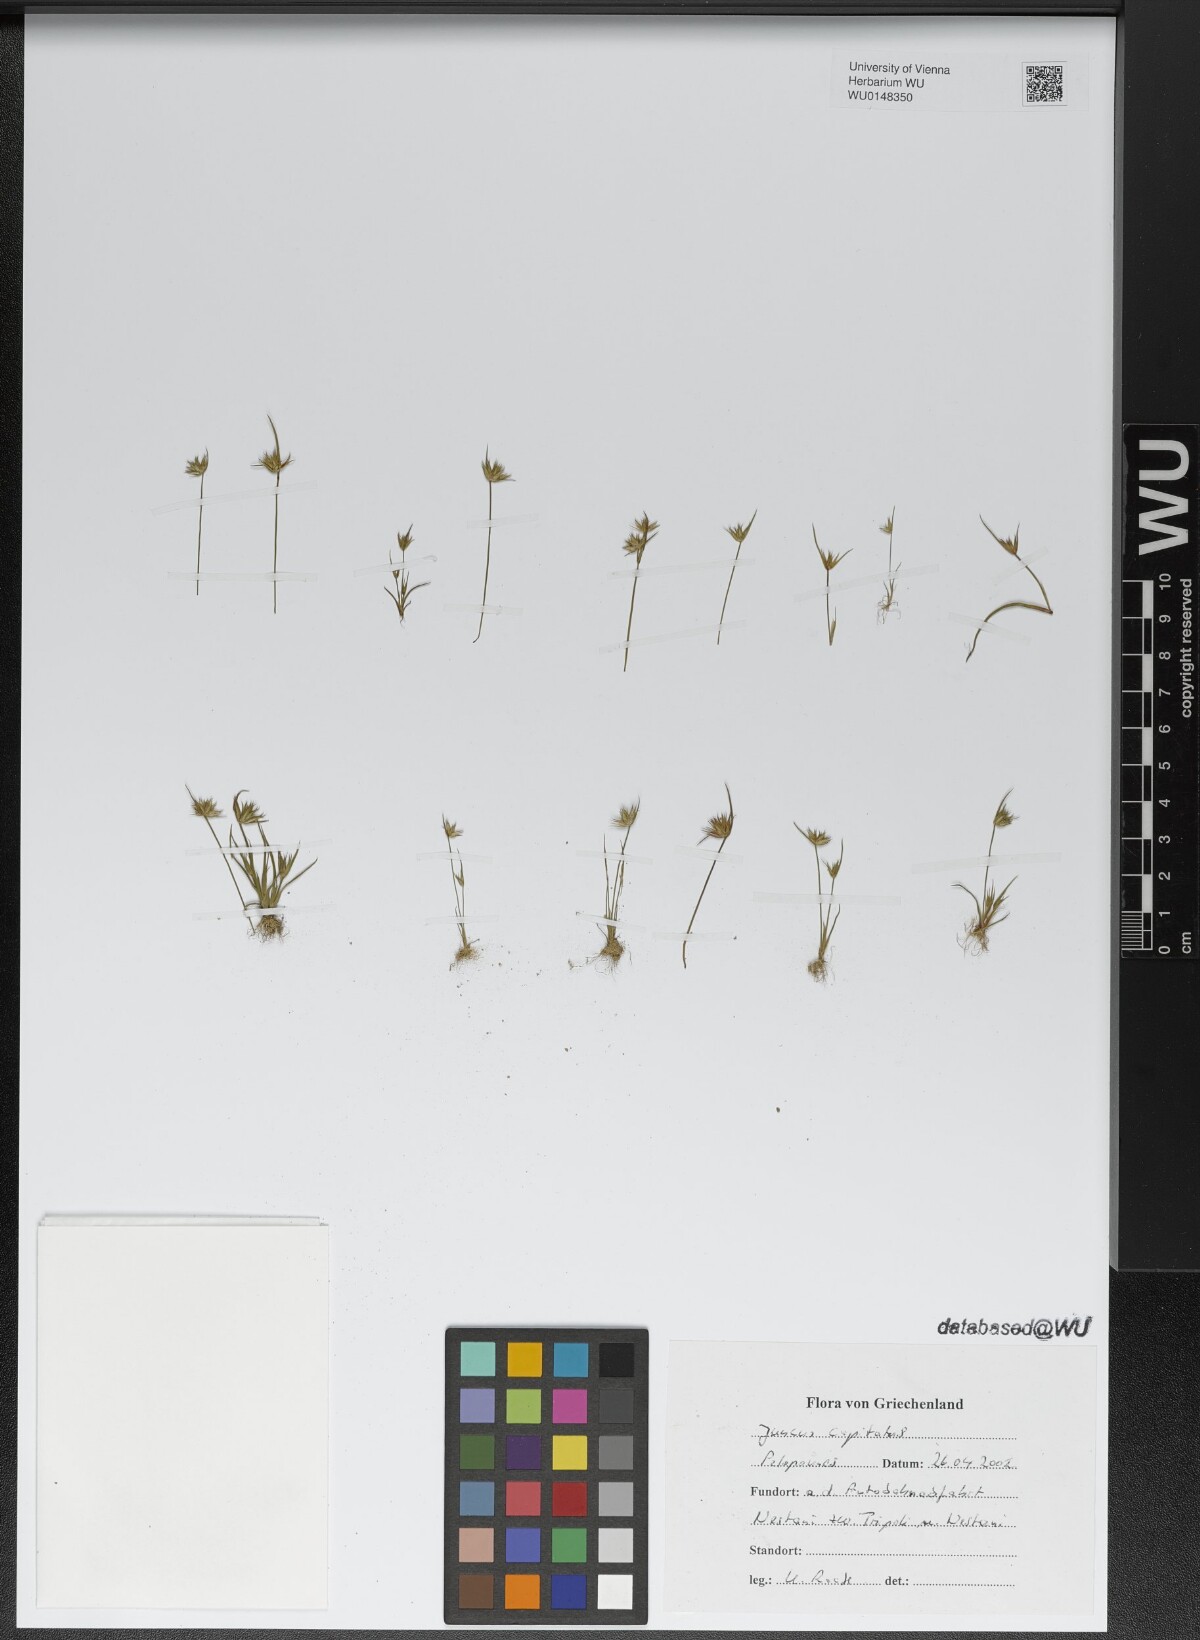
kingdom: Plantae
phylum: Tracheophyta
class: Liliopsida
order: Poales
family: Juncaceae
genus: Juncus
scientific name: Juncus capitatus
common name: Dwarf rush
